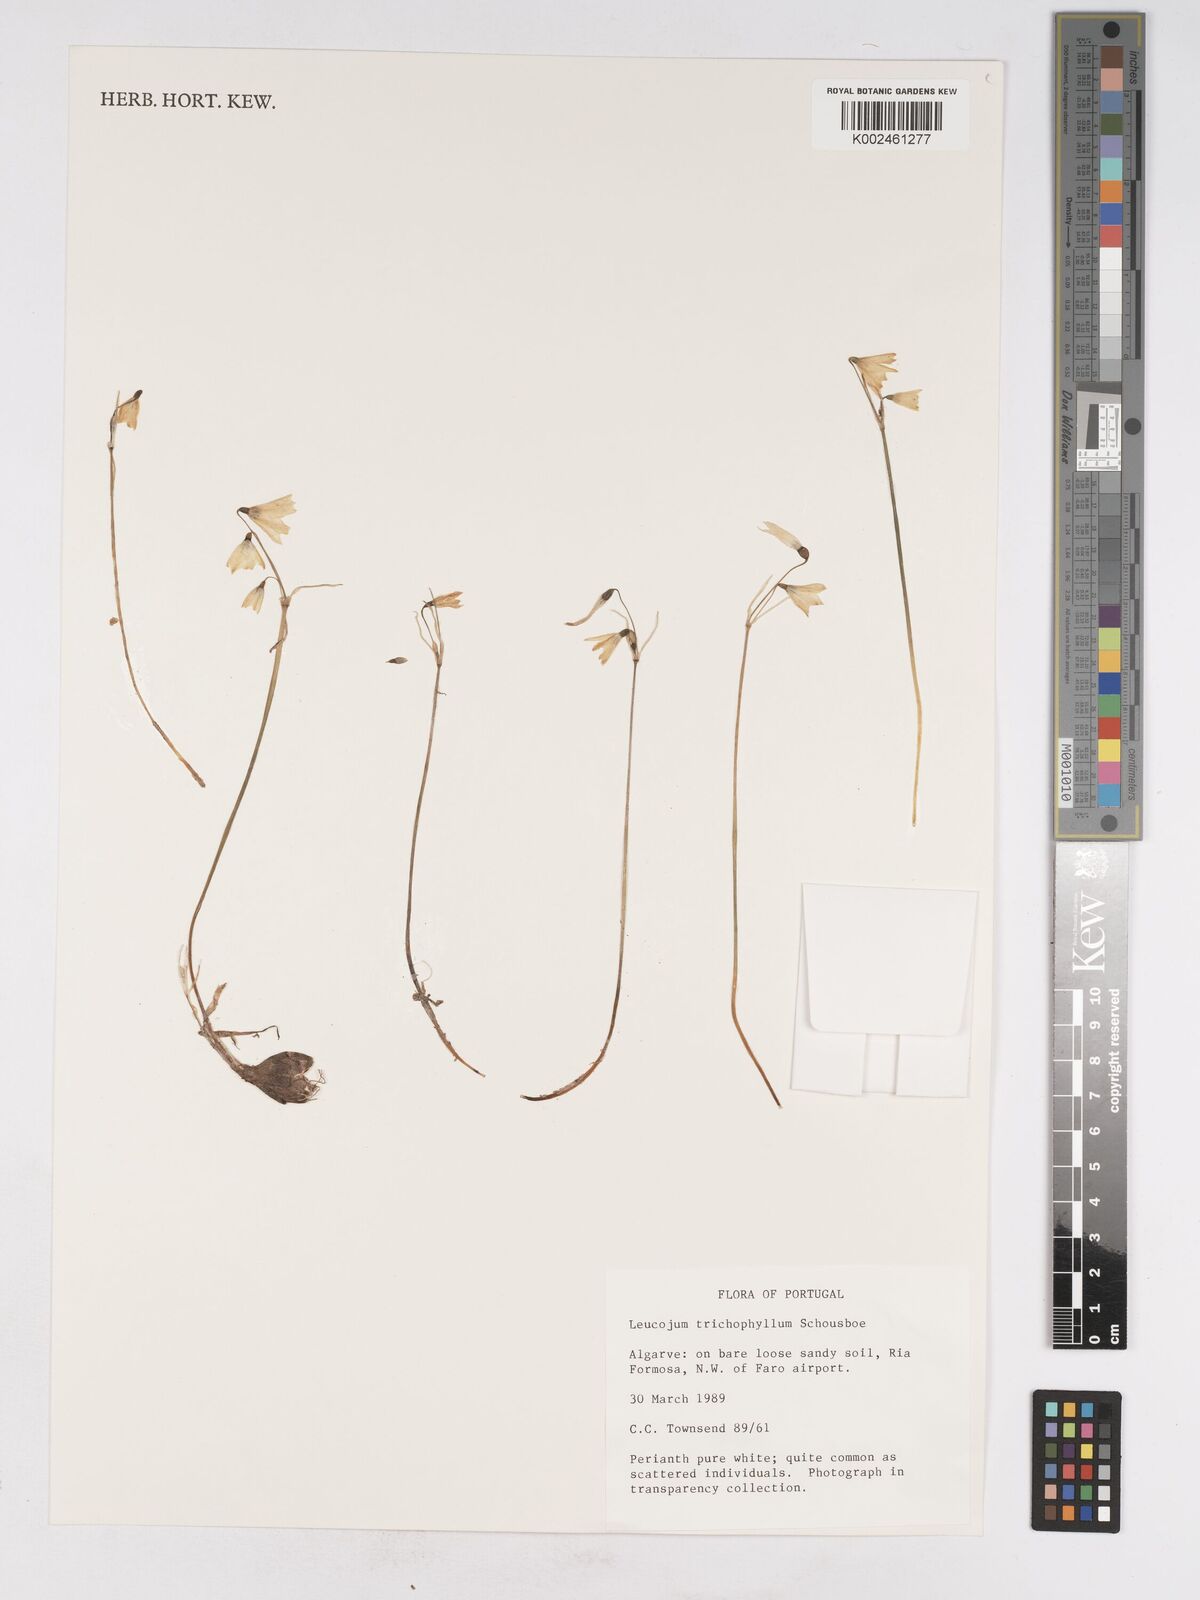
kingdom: Plantae
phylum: Tracheophyta
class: Liliopsida
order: Asparagales
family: Amaryllidaceae
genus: Acis
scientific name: Acis trichophylla
